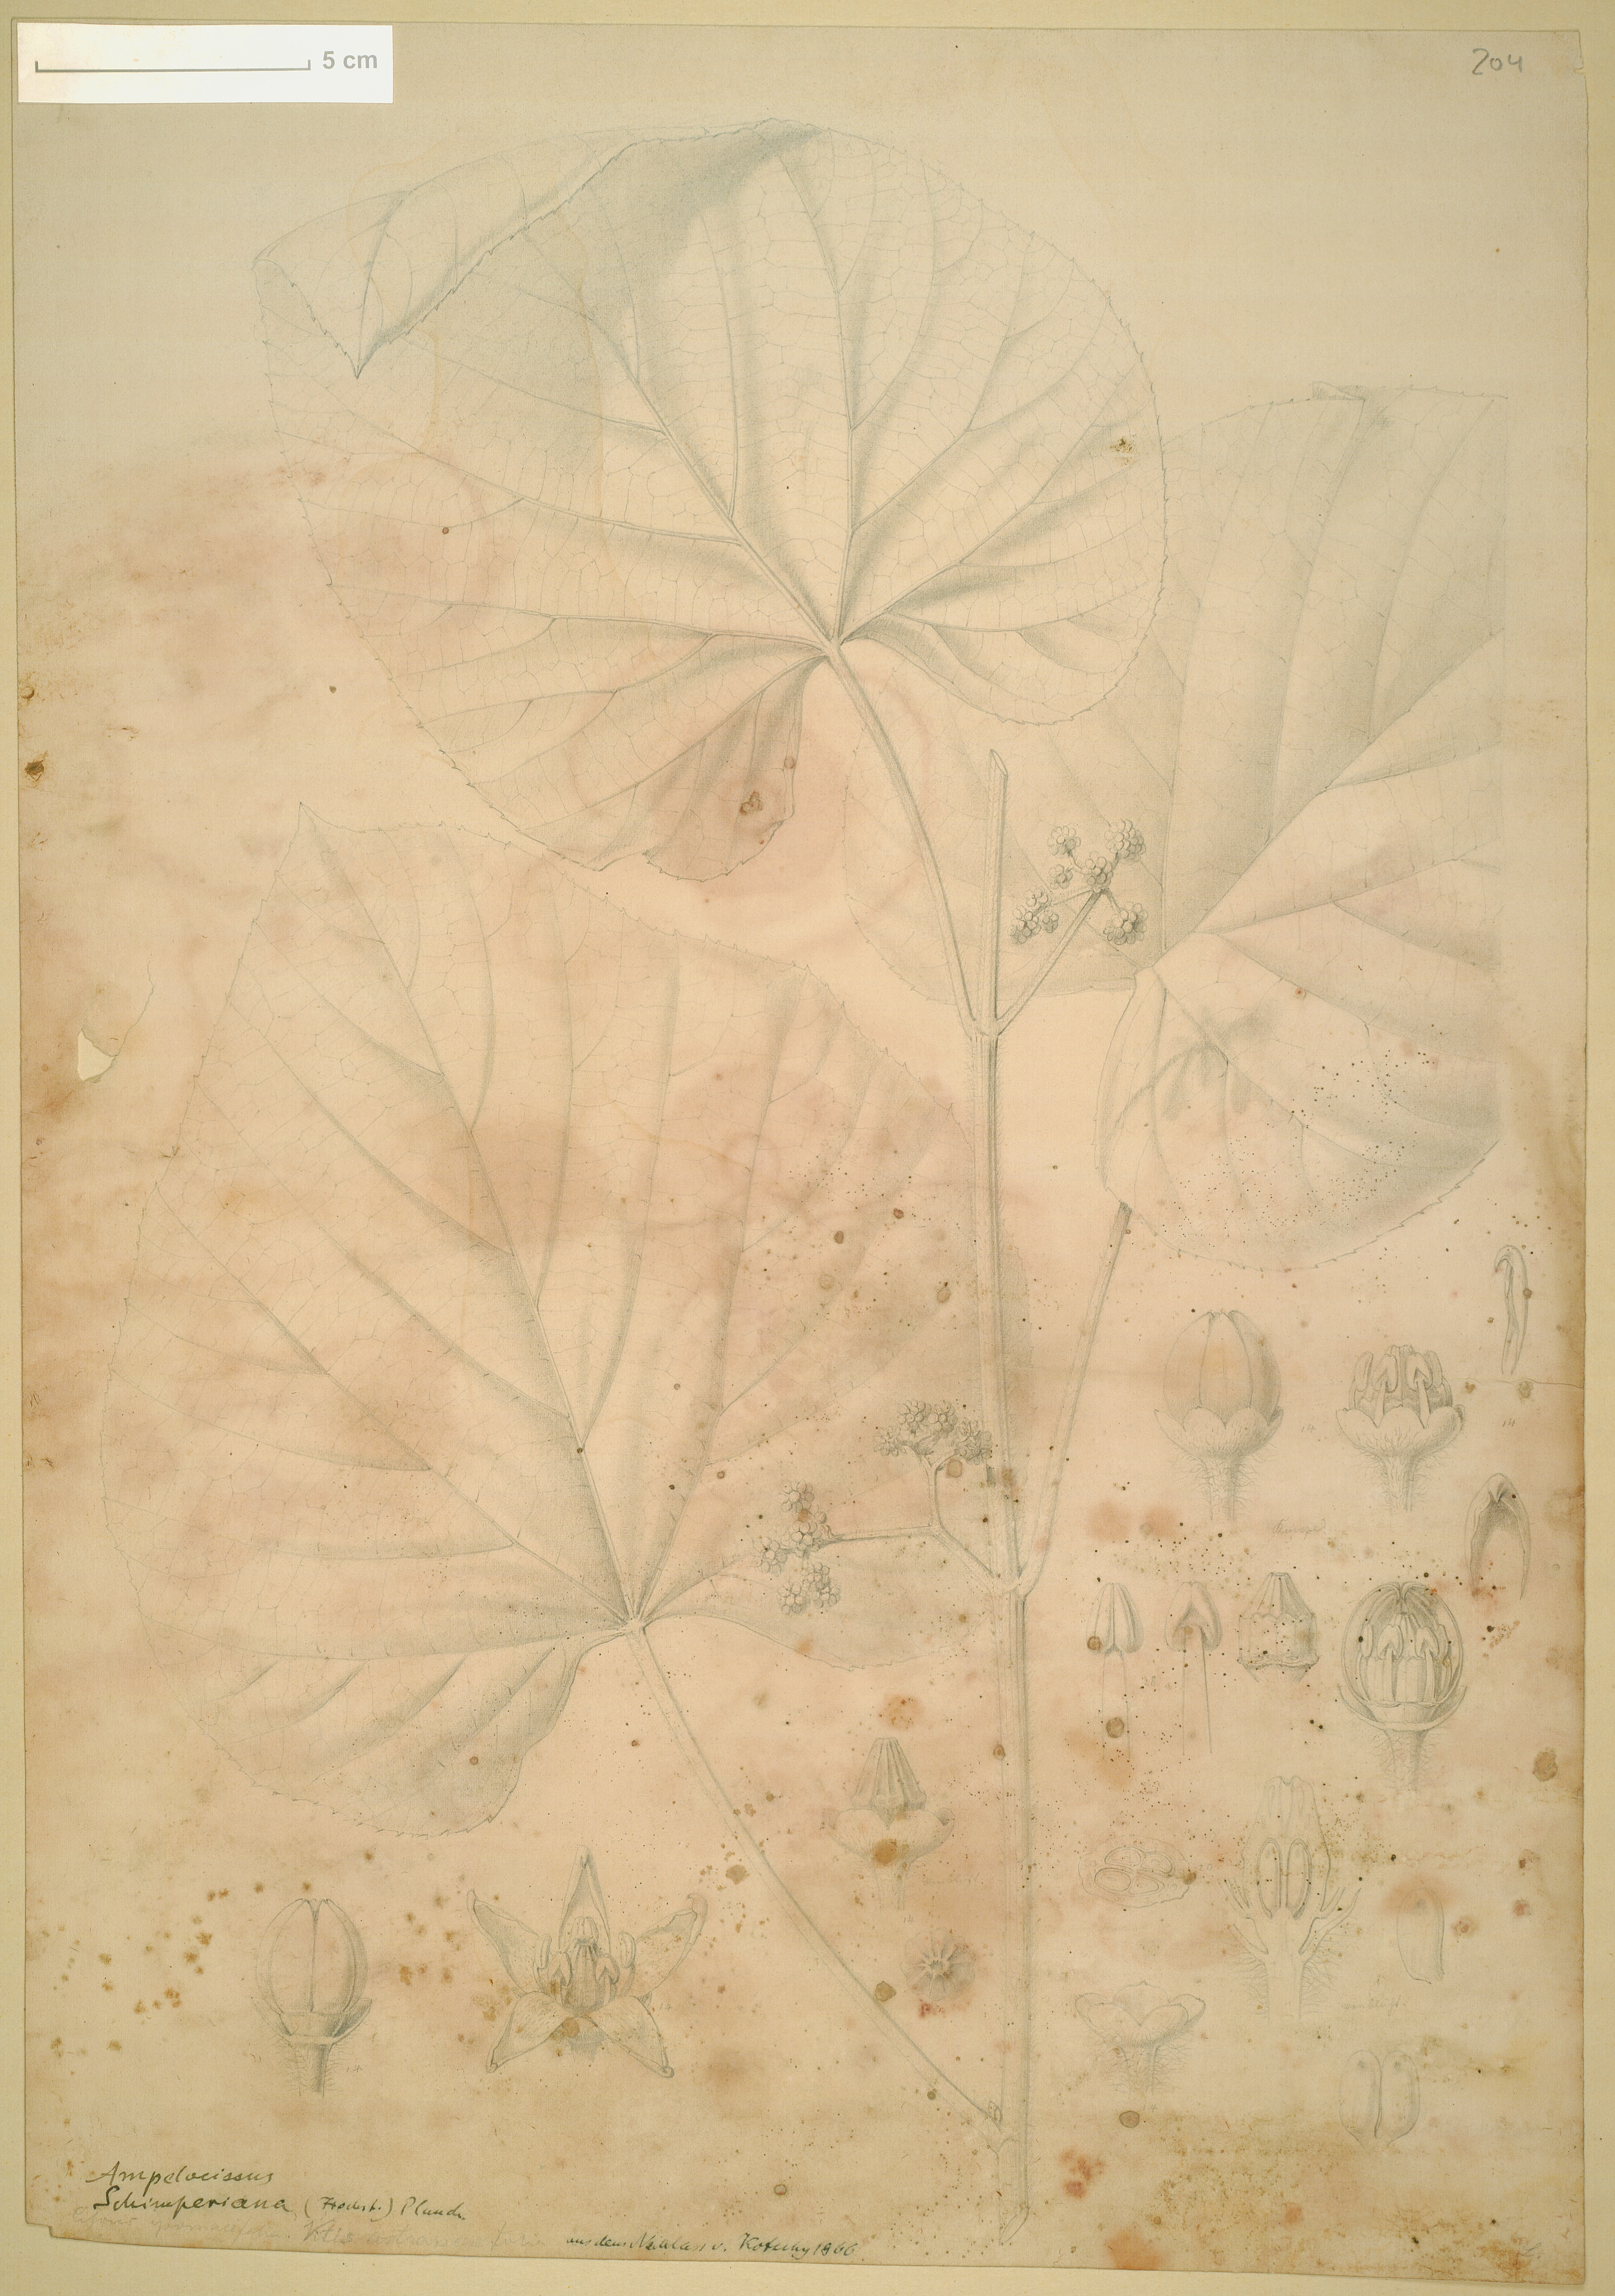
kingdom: Plantae
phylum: Tracheophyta
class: Magnoliopsida
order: Vitales
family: Vitaceae
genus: Ampelocissus
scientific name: Ampelocissus schimperiana
